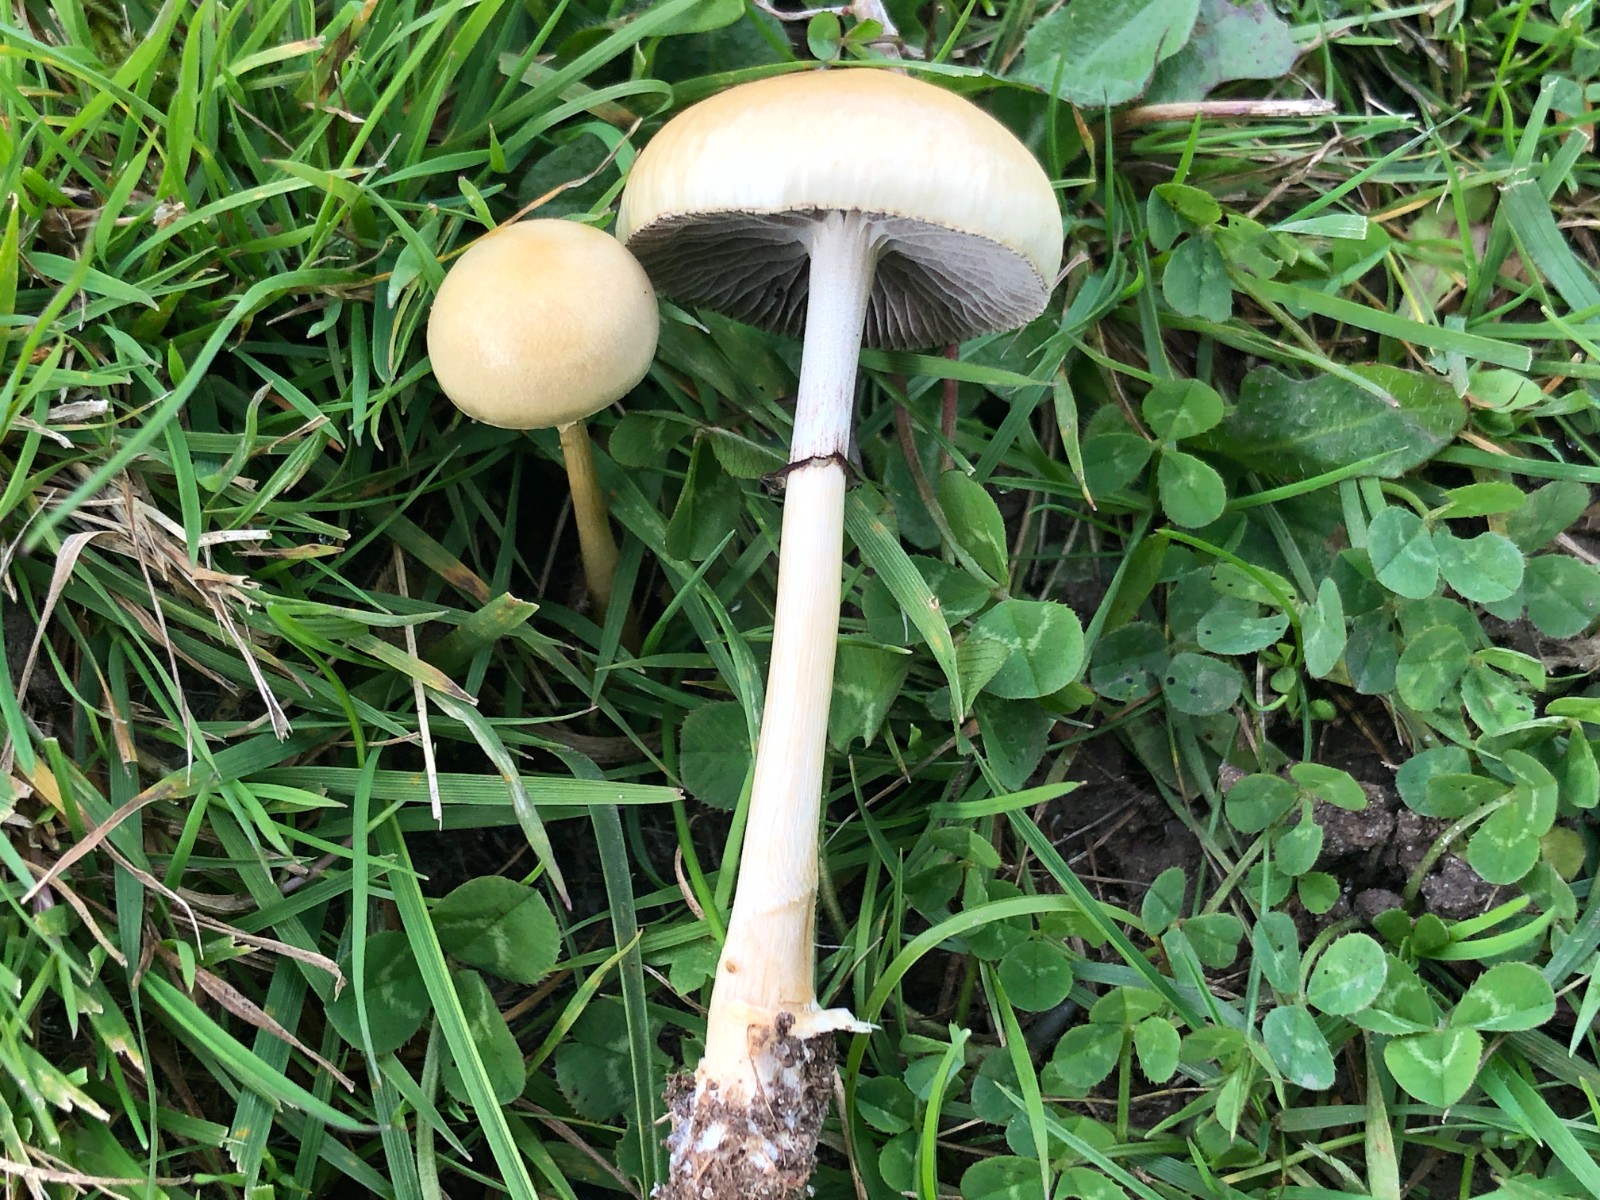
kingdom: Fungi
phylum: Basidiomycota
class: Agaricomycetes
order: Agaricales
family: Strophariaceae
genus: Protostropharia
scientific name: Protostropharia semiglobata
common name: halvkugleformet bredblad
